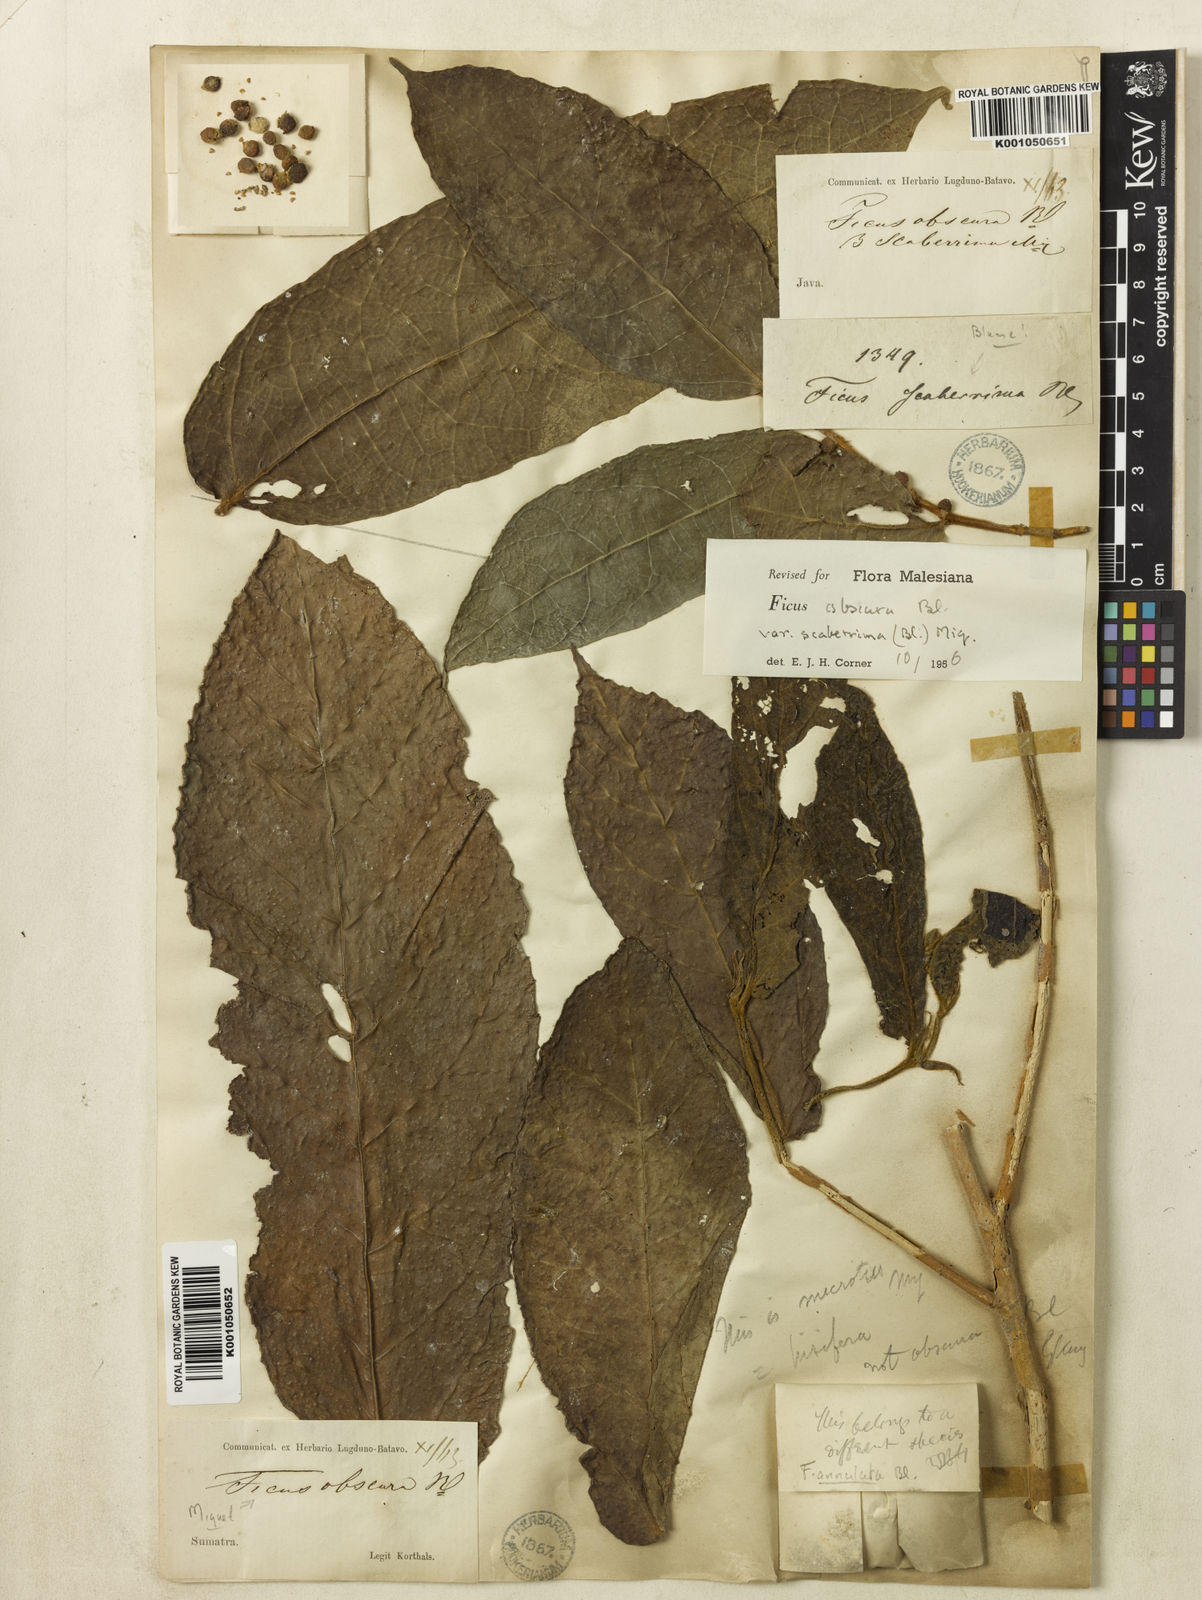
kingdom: Plantae
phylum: Tracheophyta
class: Magnoliopsida
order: Rosales
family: Moraceae
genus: Ficus
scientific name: Ficus scaberrima
